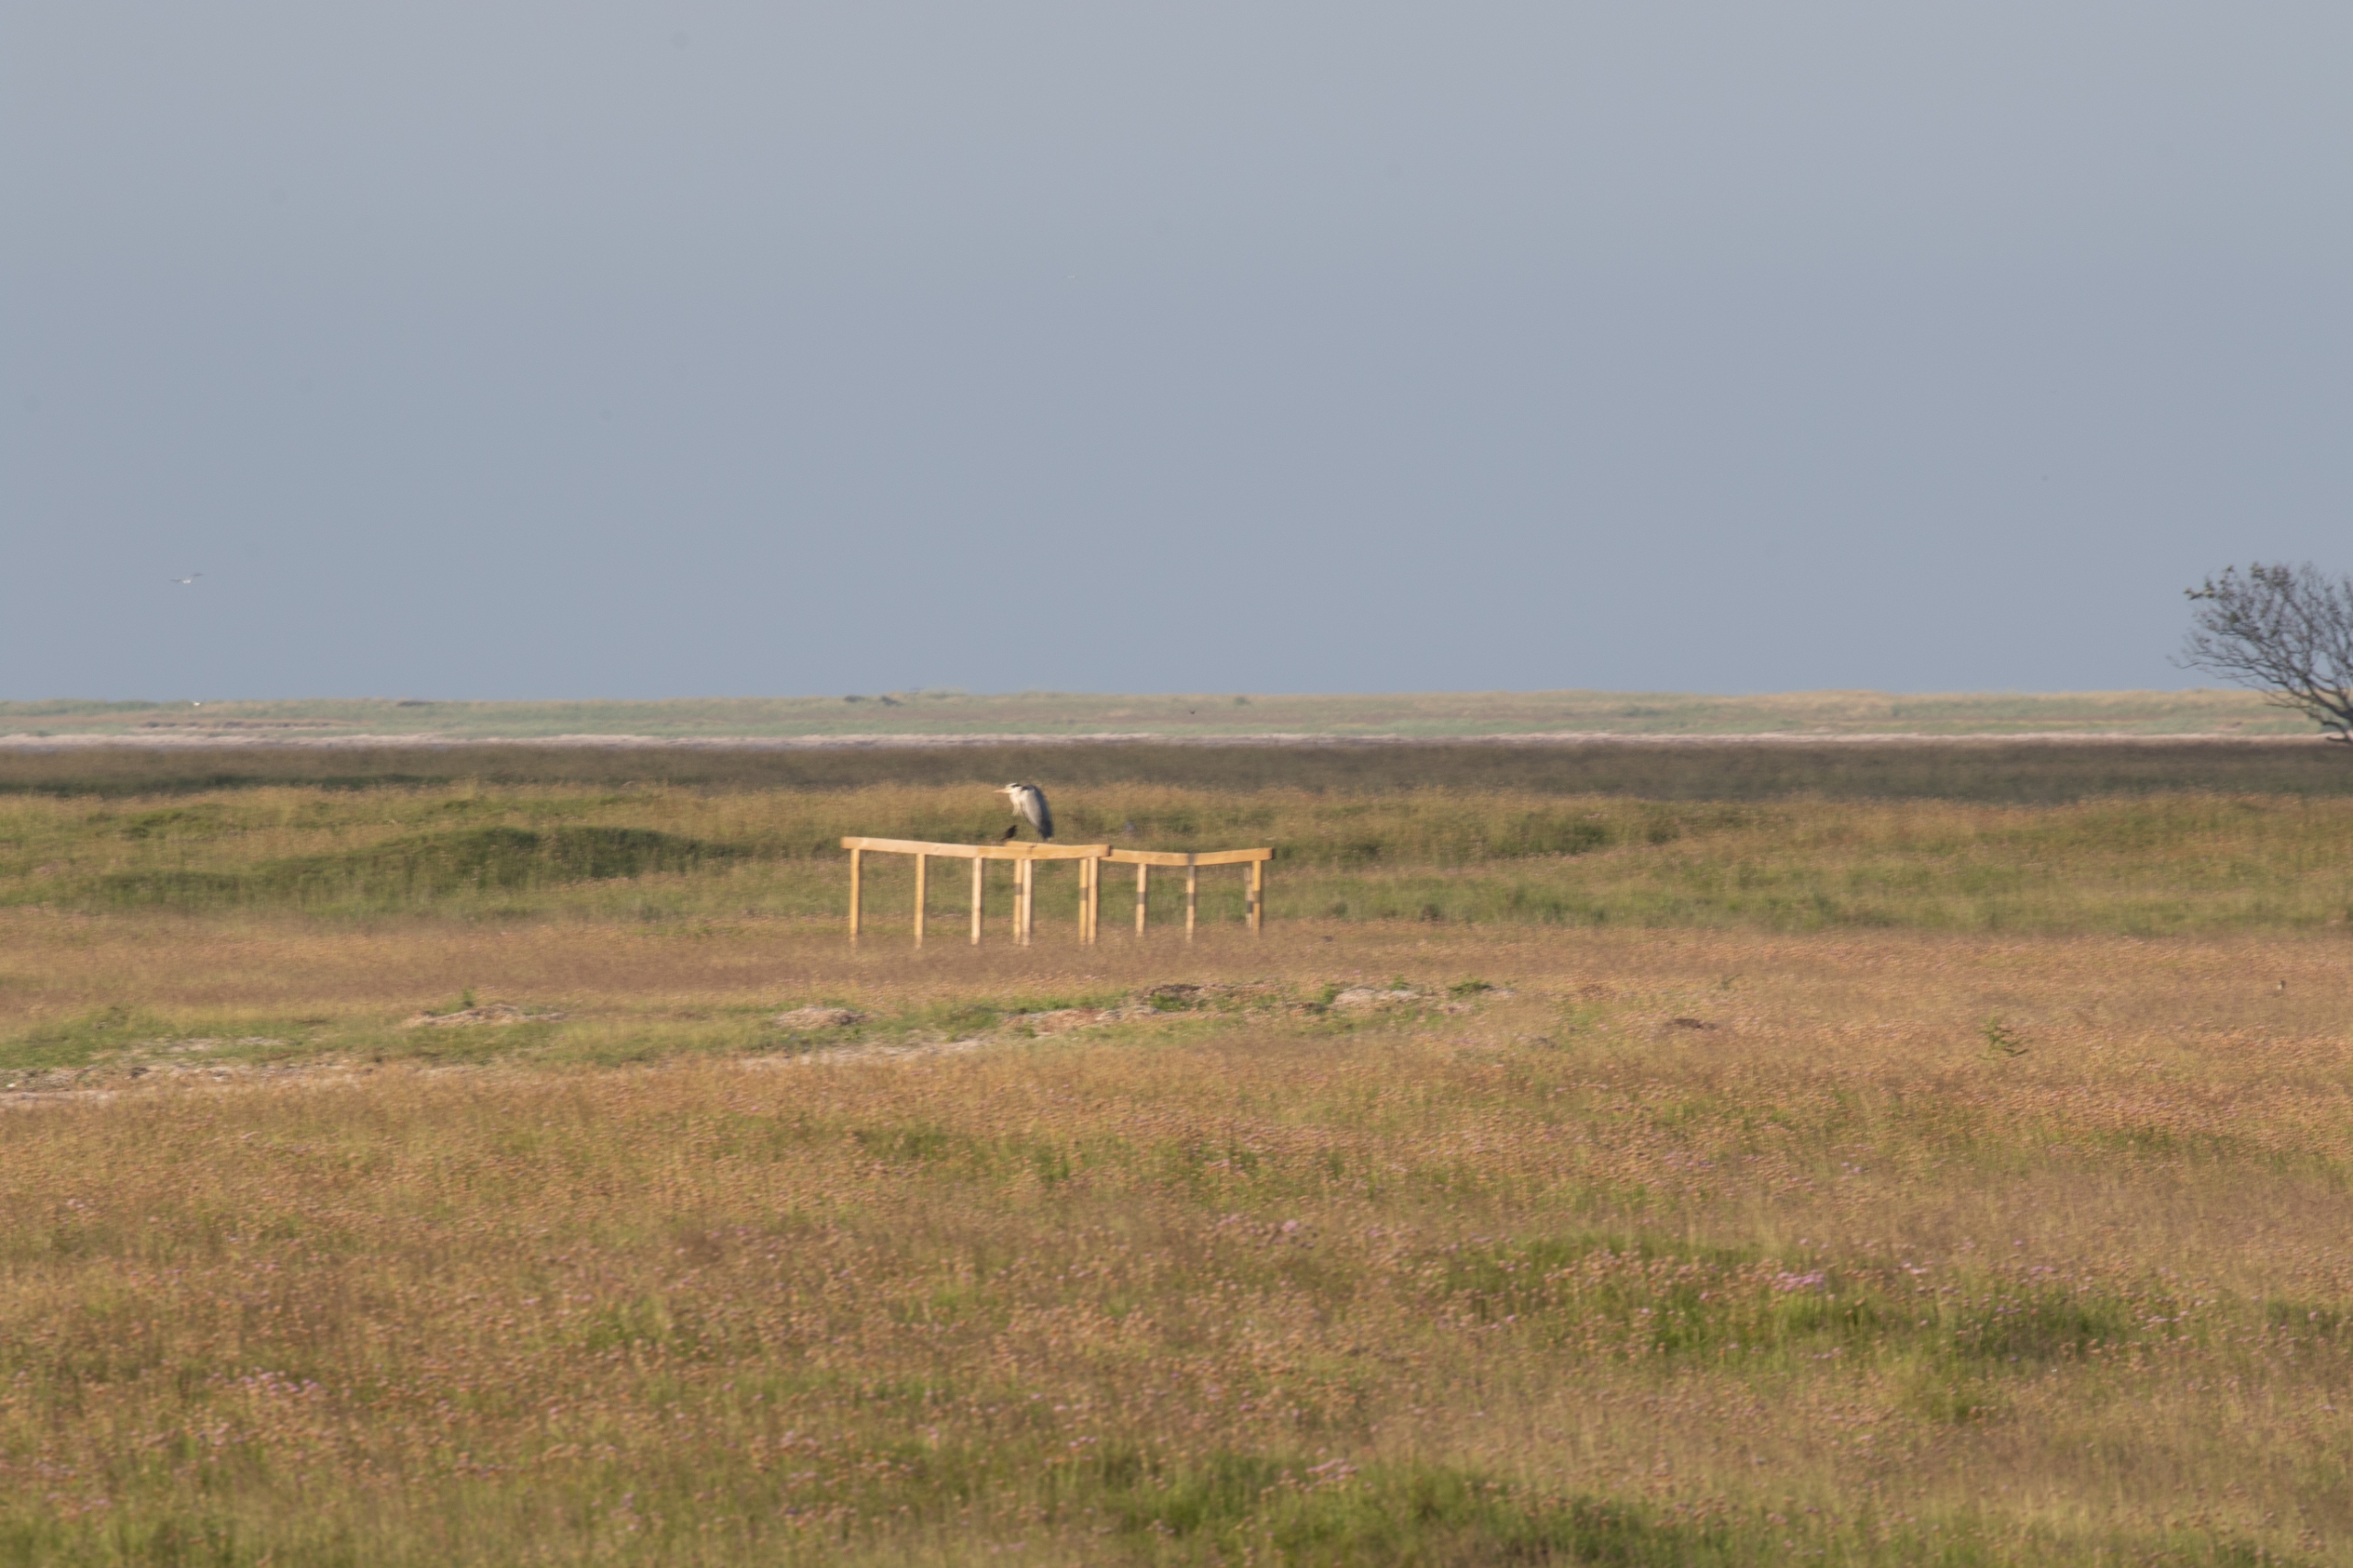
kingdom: Animalia
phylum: Chordata
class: Aves
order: Pelecaniformes
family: Ardeidae
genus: Ardea
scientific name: Ardea cinerea
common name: Fiskehejre
